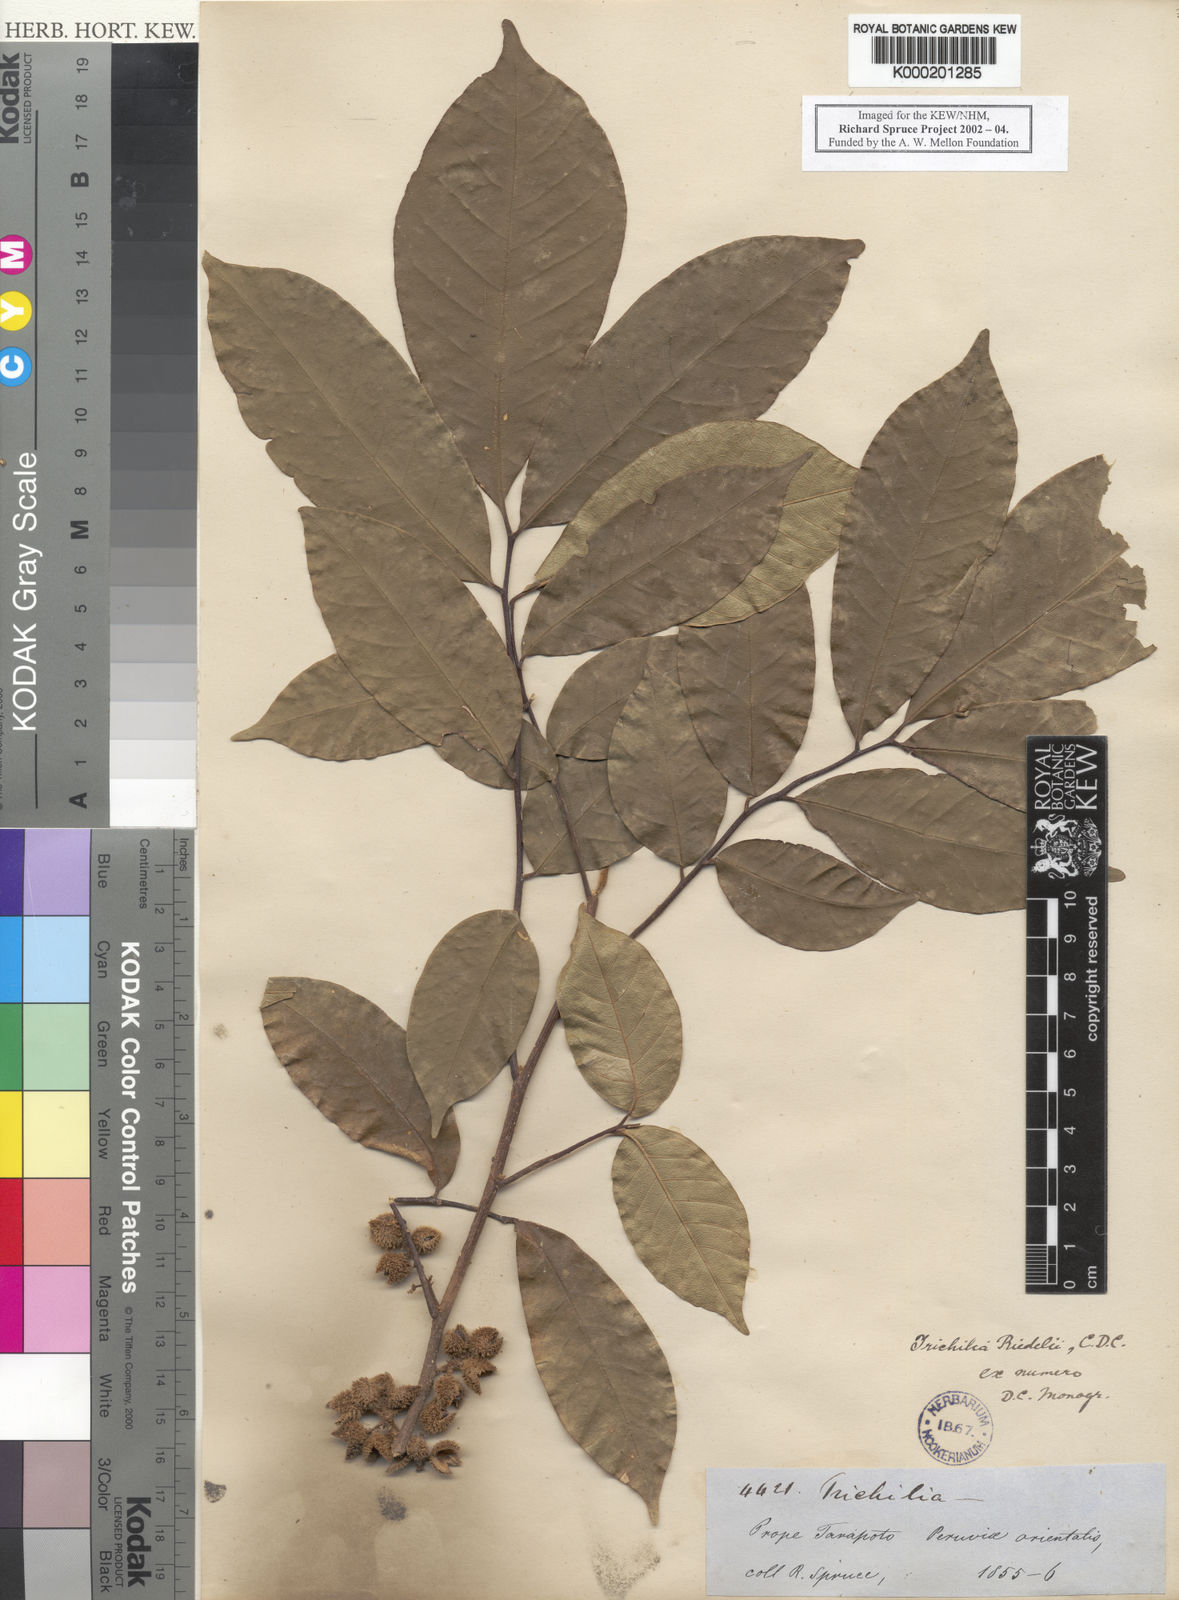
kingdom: Plantae
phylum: Tracheophyta
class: Magnoliopsida
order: Sapindales
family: Meliaceae
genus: Trichilia
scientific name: Trichilia pallida
